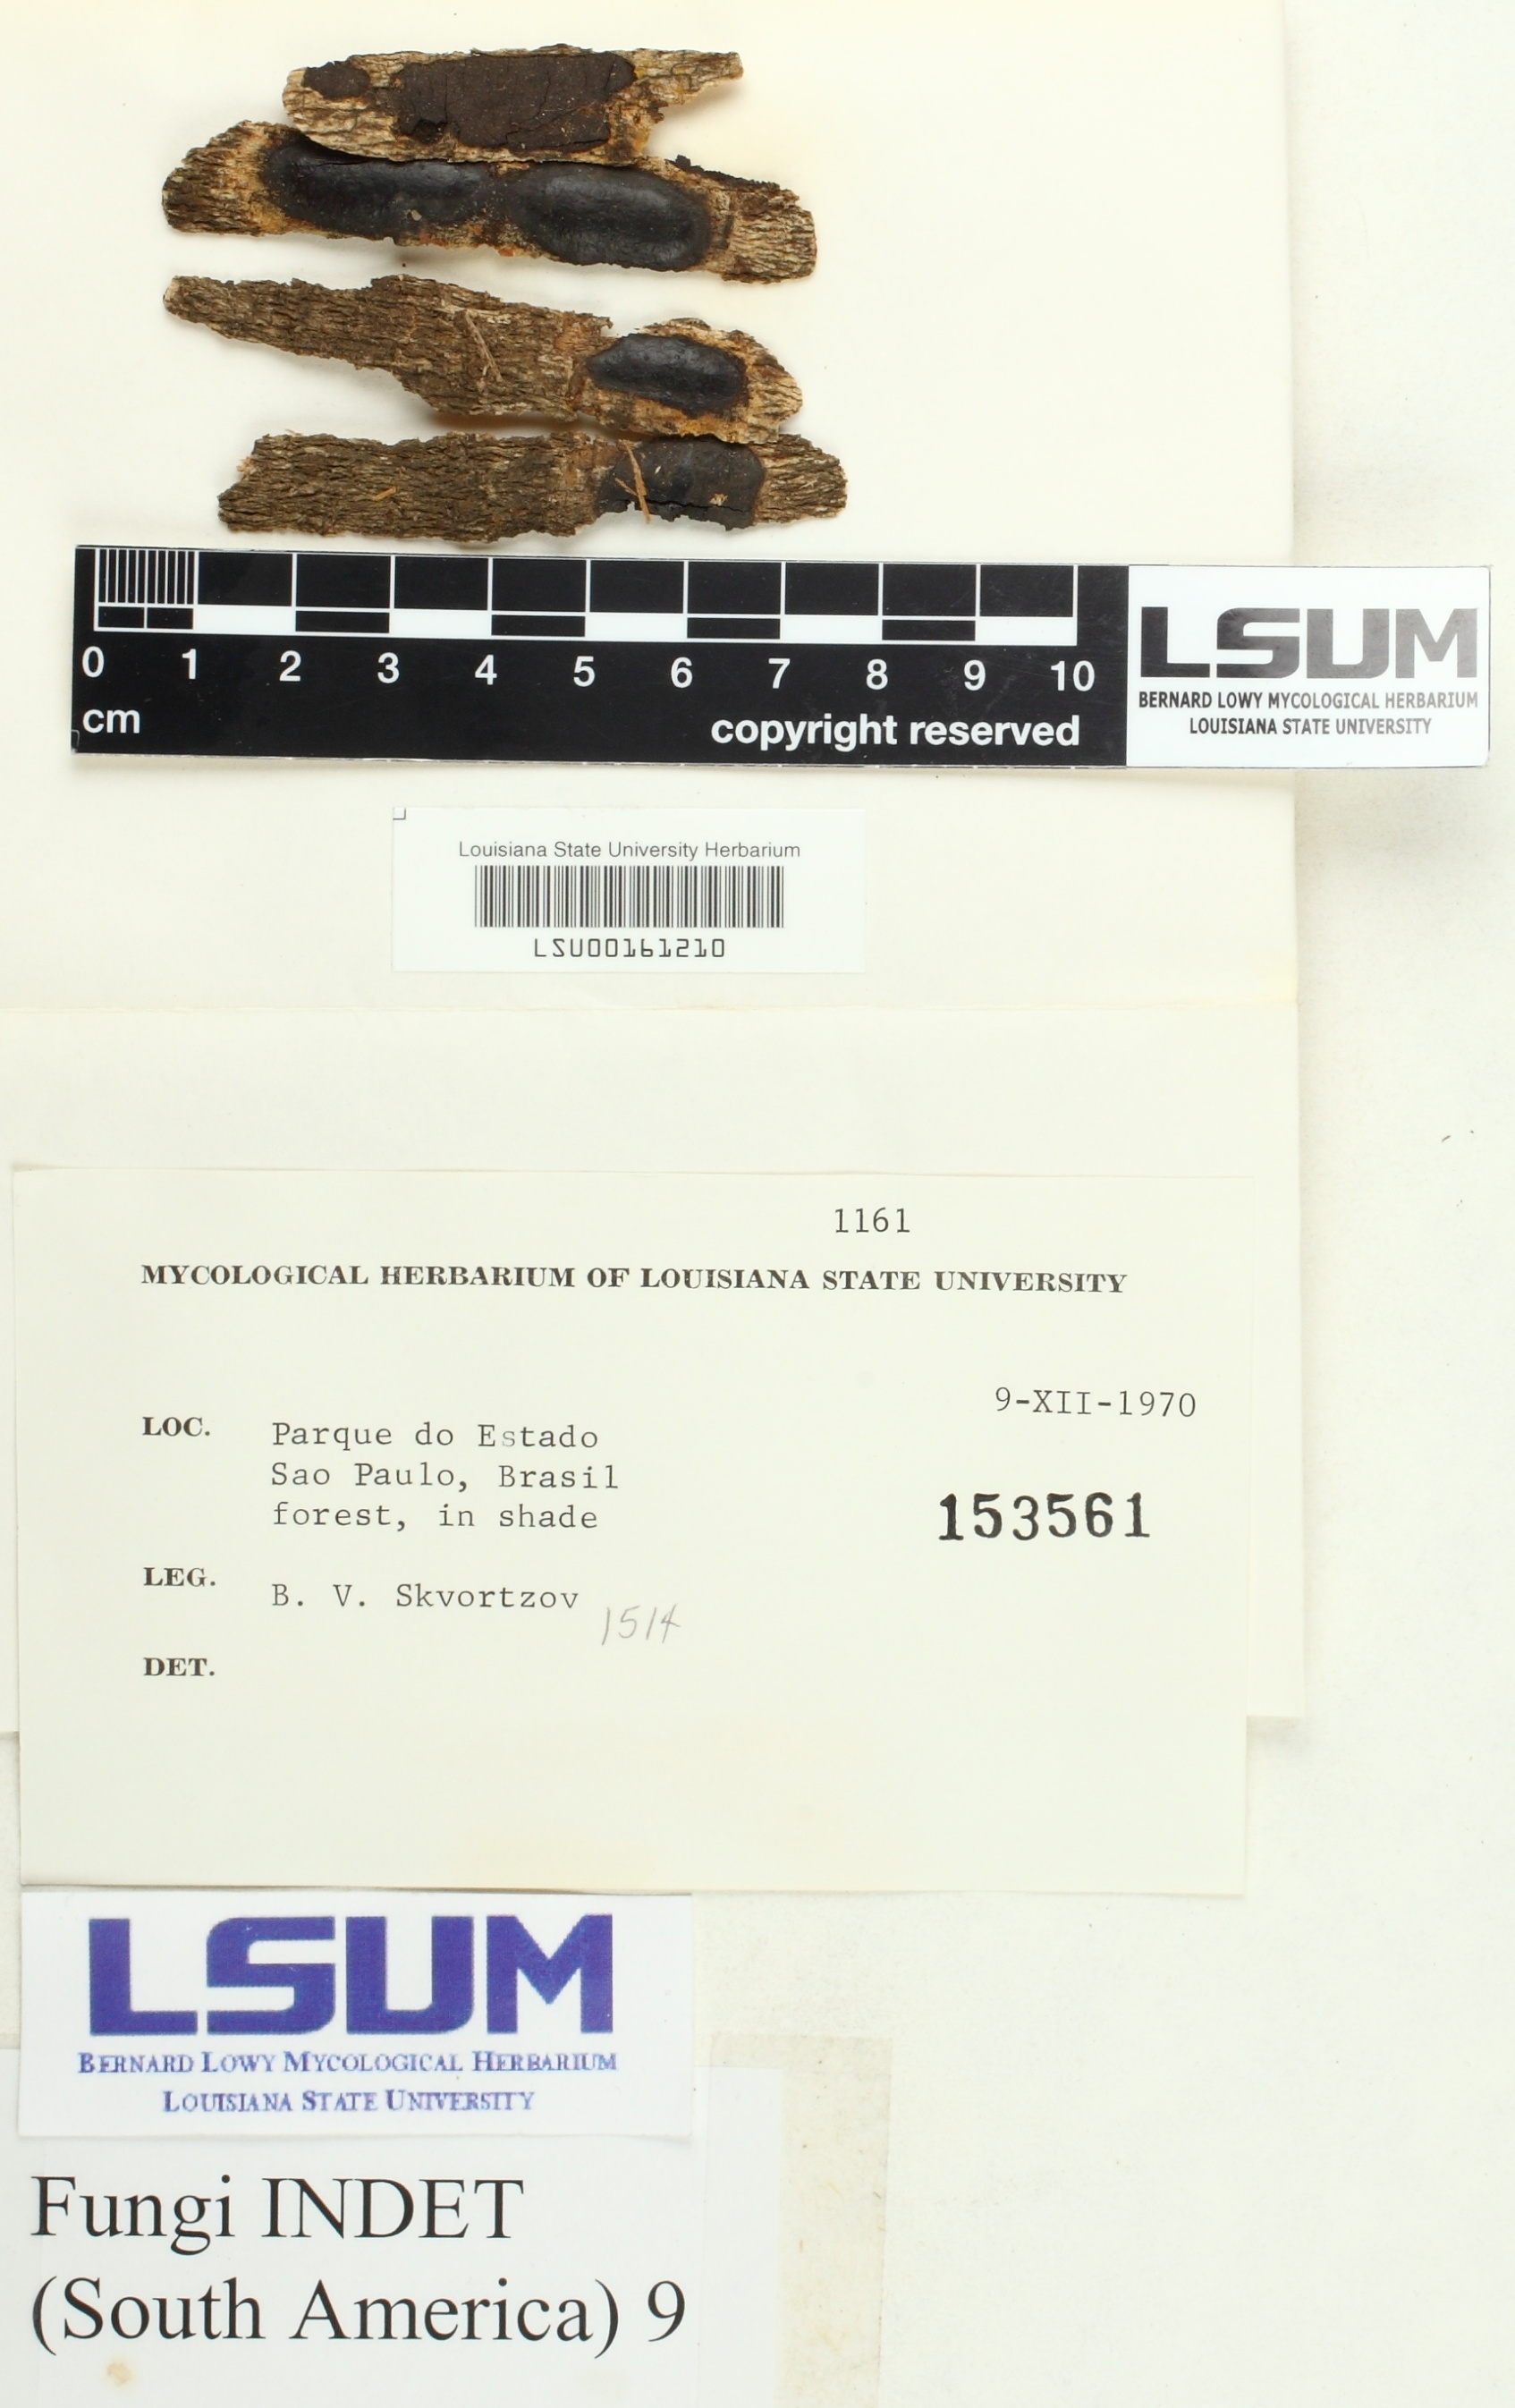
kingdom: Fungi
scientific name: Fungi
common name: Fungi
